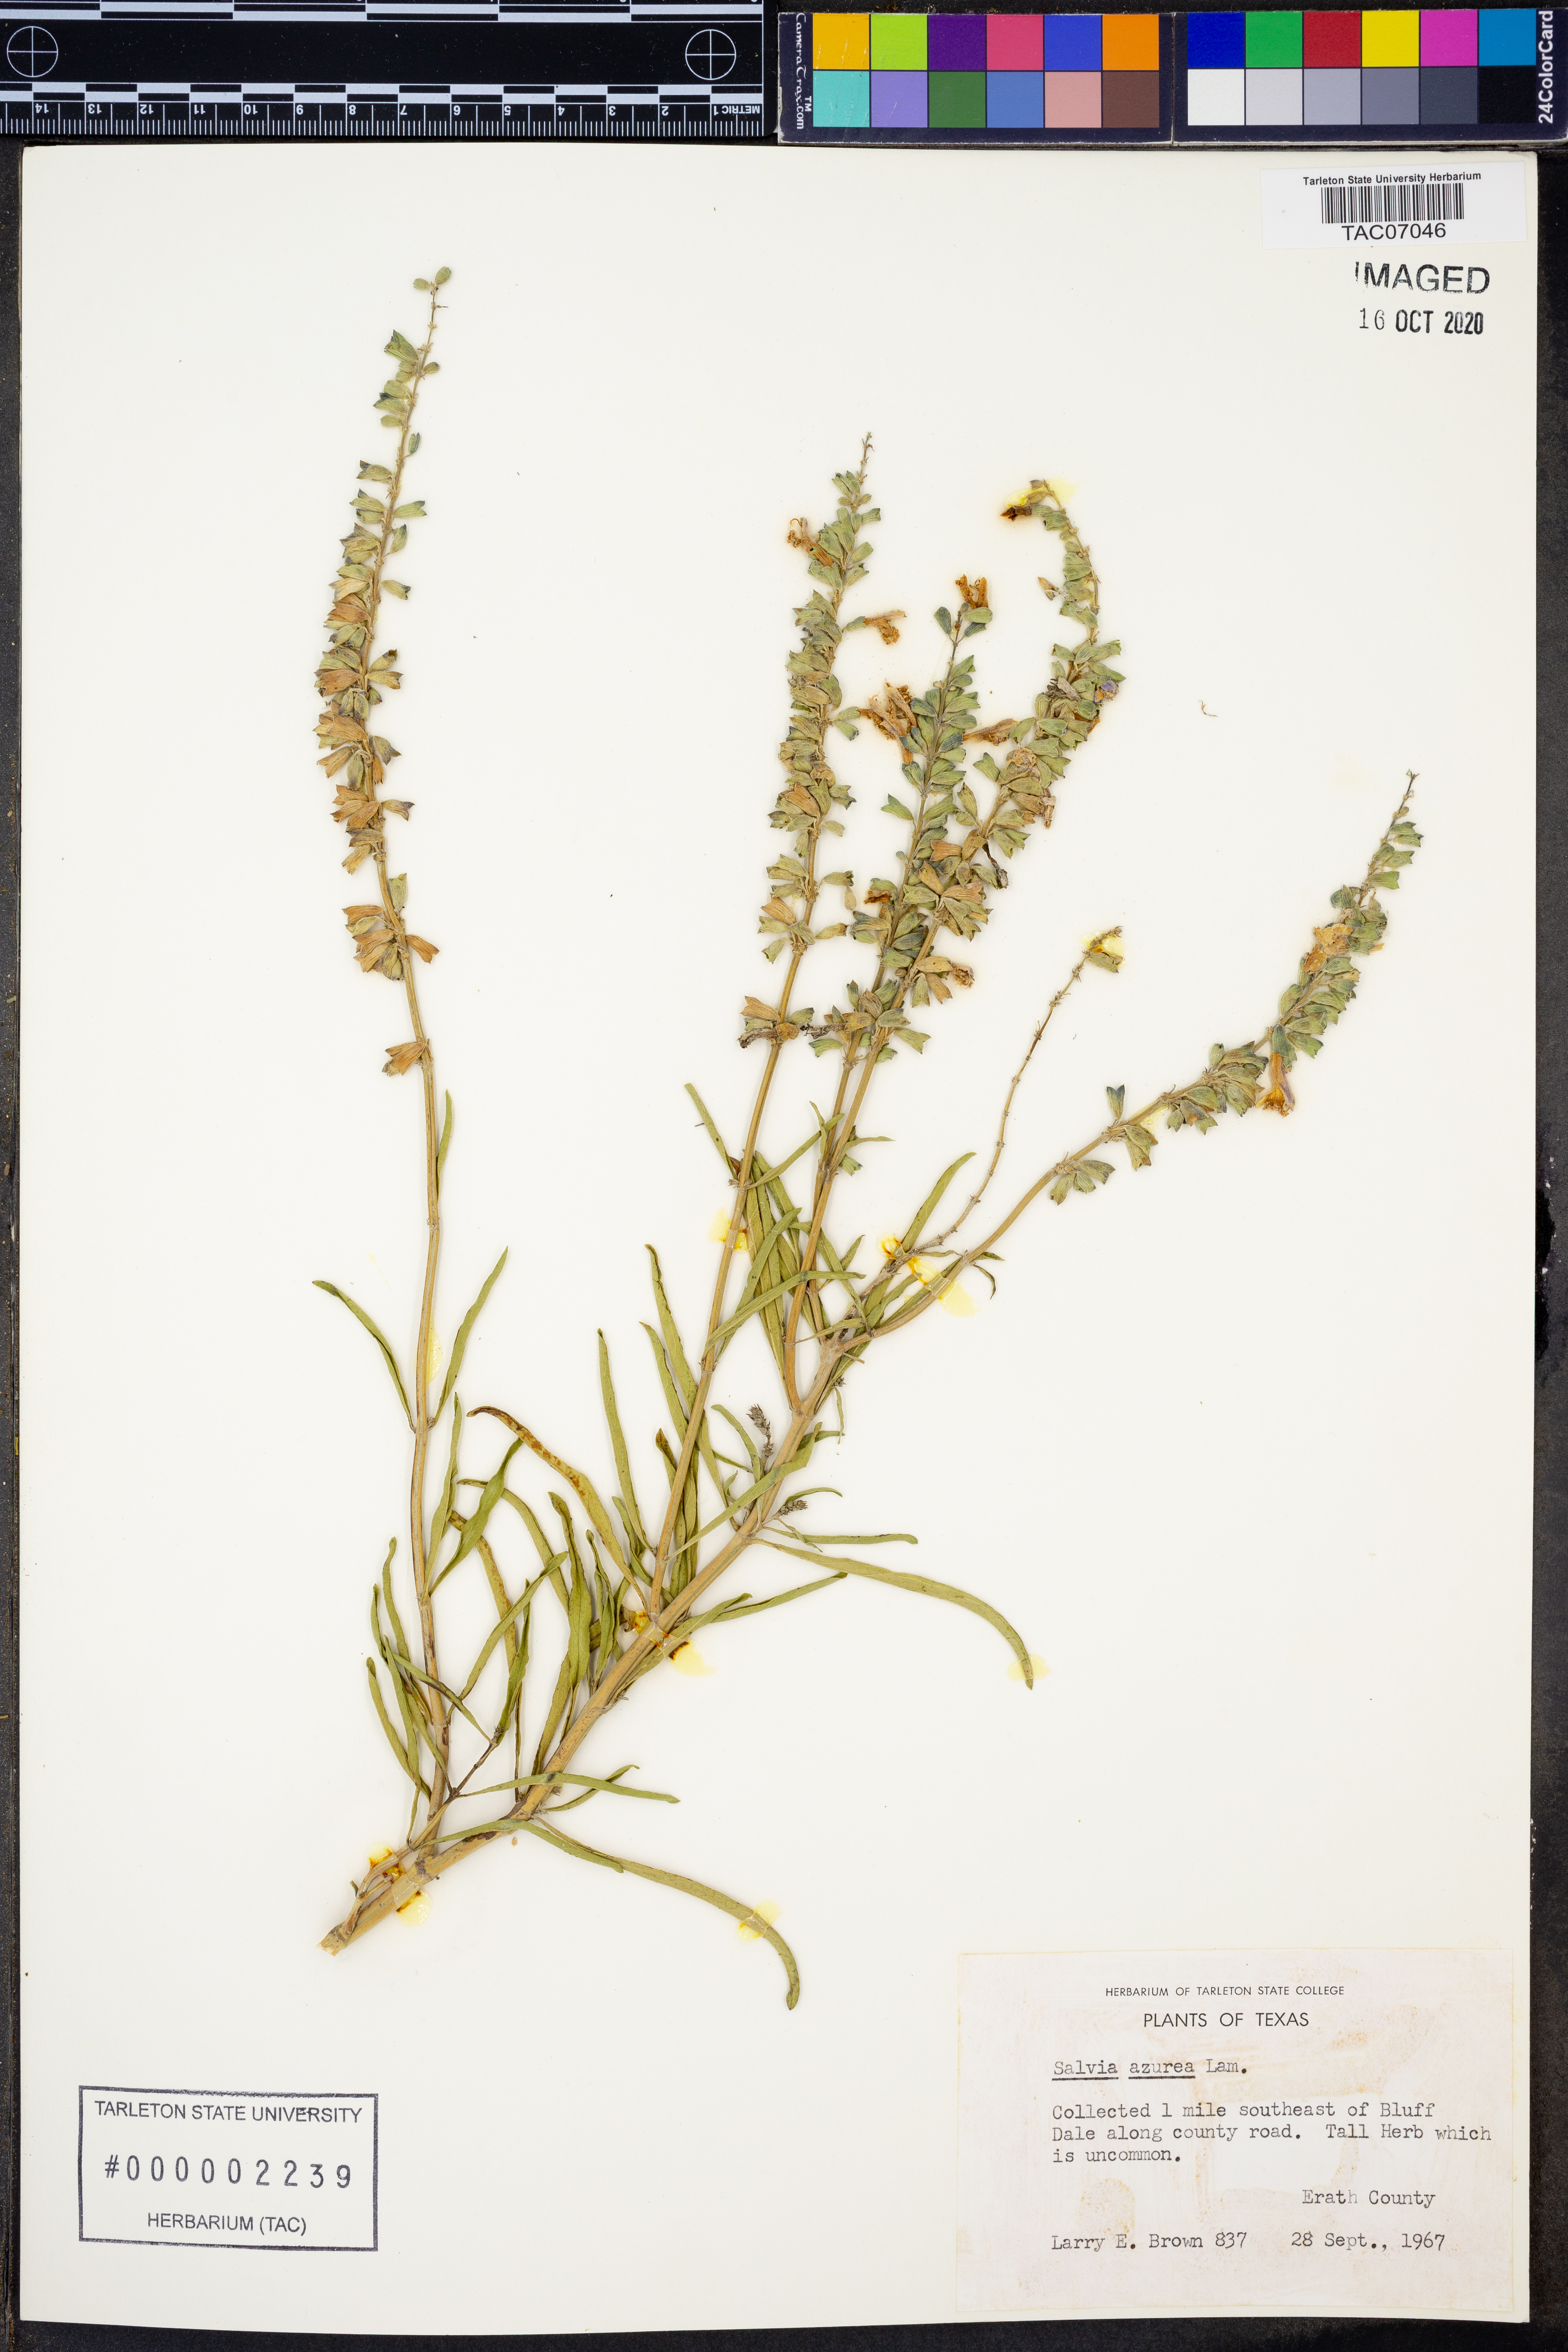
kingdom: Plantae
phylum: Tracheophyta
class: Magnoliopsida
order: Lamiales
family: Lamiaceae
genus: Salvia
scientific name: Salvia azurea
